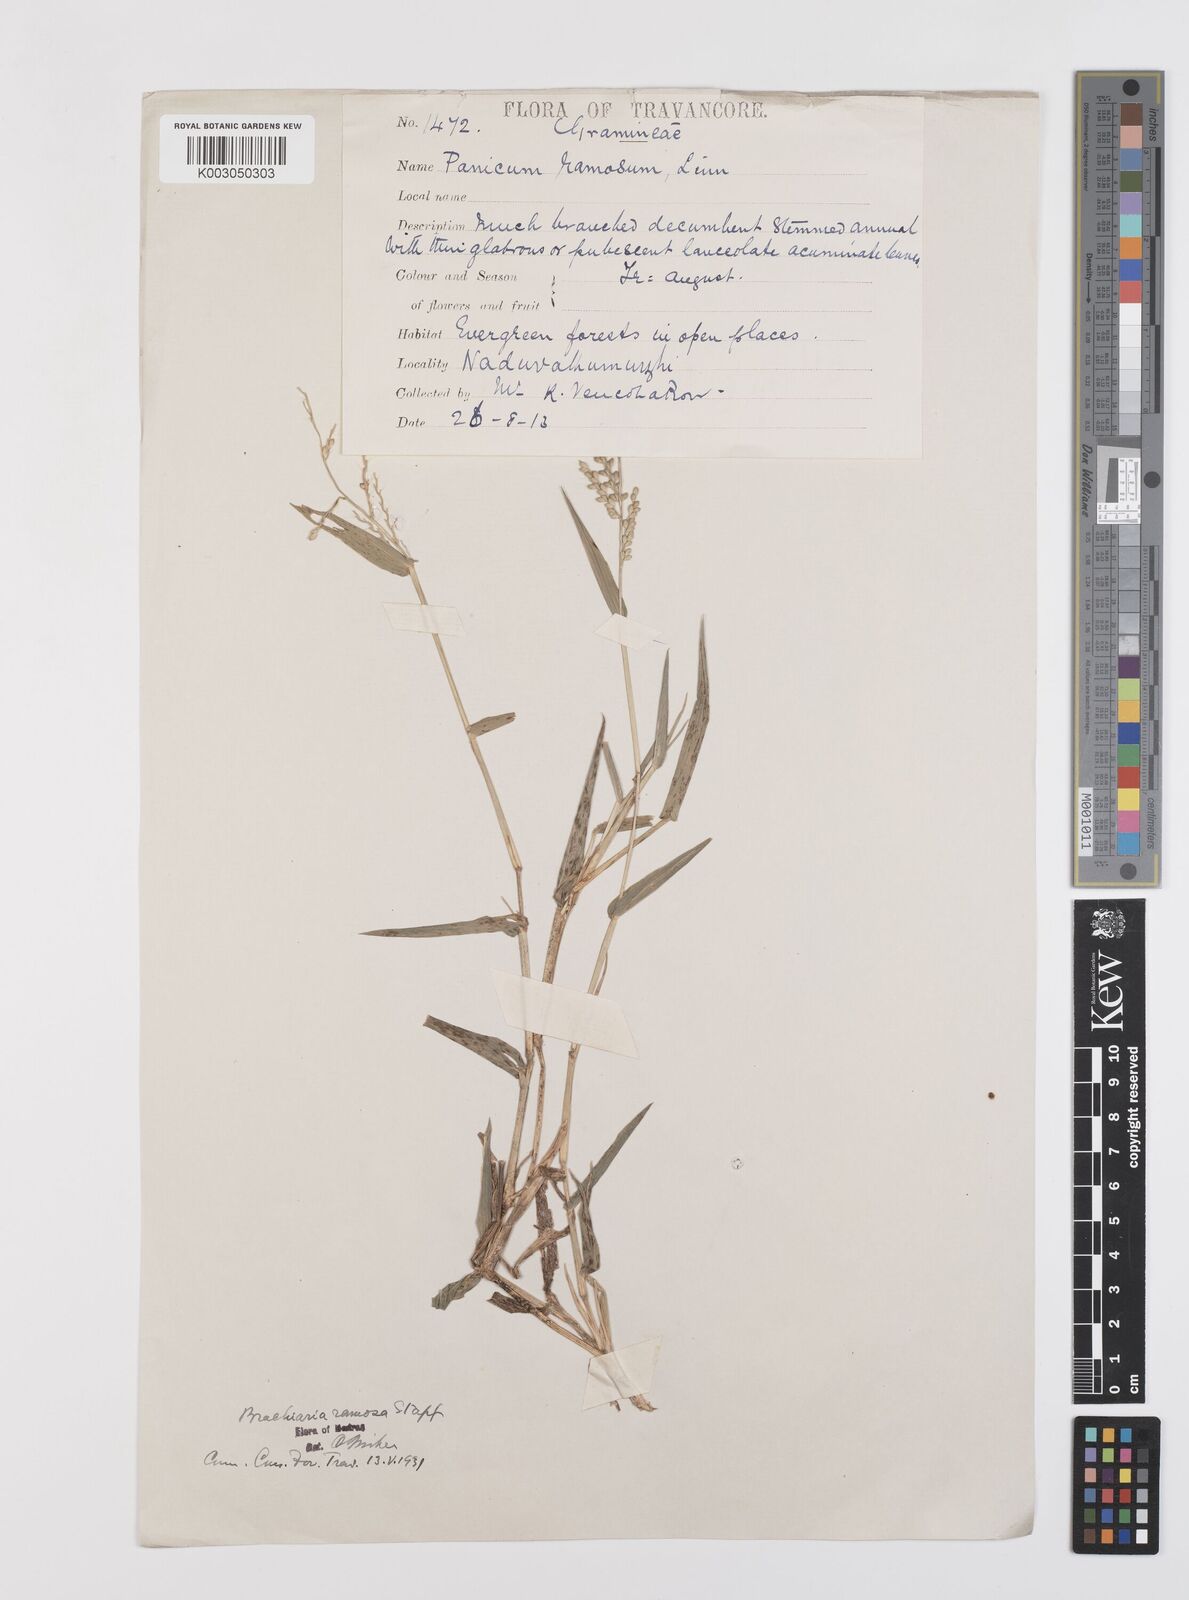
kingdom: Plantae
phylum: Tracheophyta
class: Liliopsida
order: Poales
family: Poaceae
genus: Urochloa
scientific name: Urochloa ramosa
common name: Browntop millet
